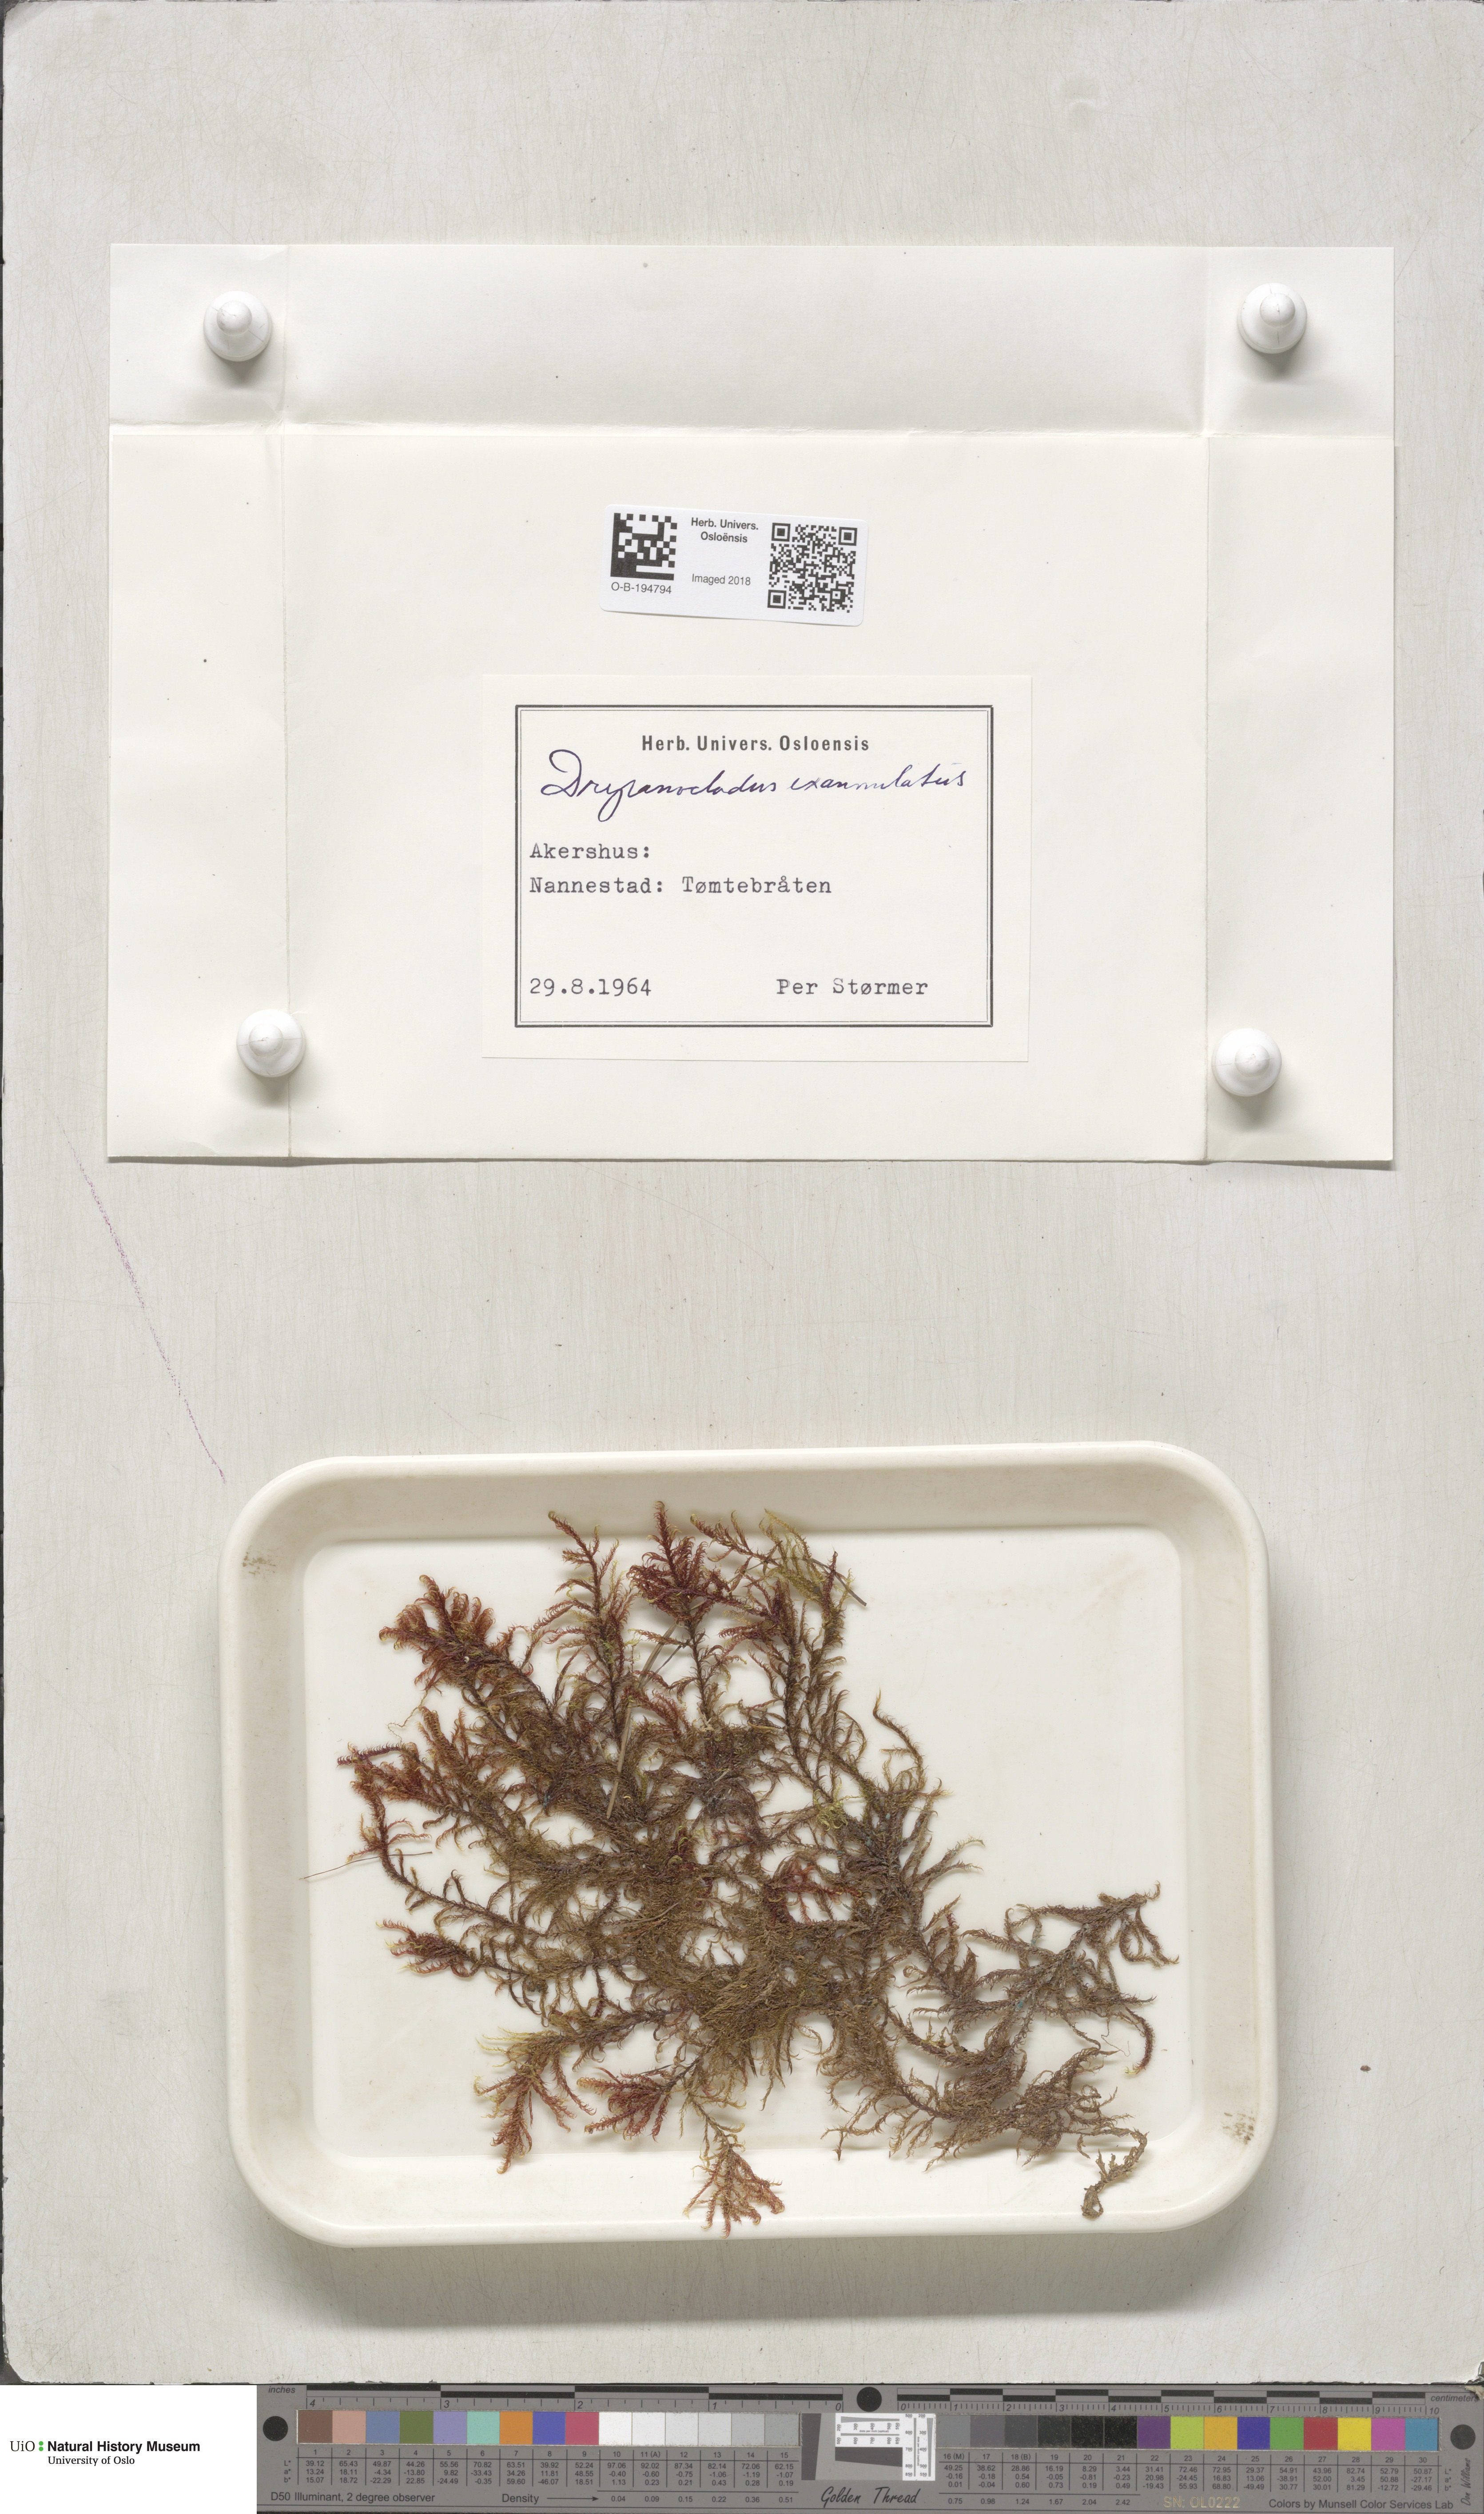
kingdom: Plantae
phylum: Bryophyta
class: Bryopsida
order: Hypnales
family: Calliergonaceae
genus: Sarmentypnum
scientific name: Sarmentypnum exannulatum
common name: Ringless spoon moss
